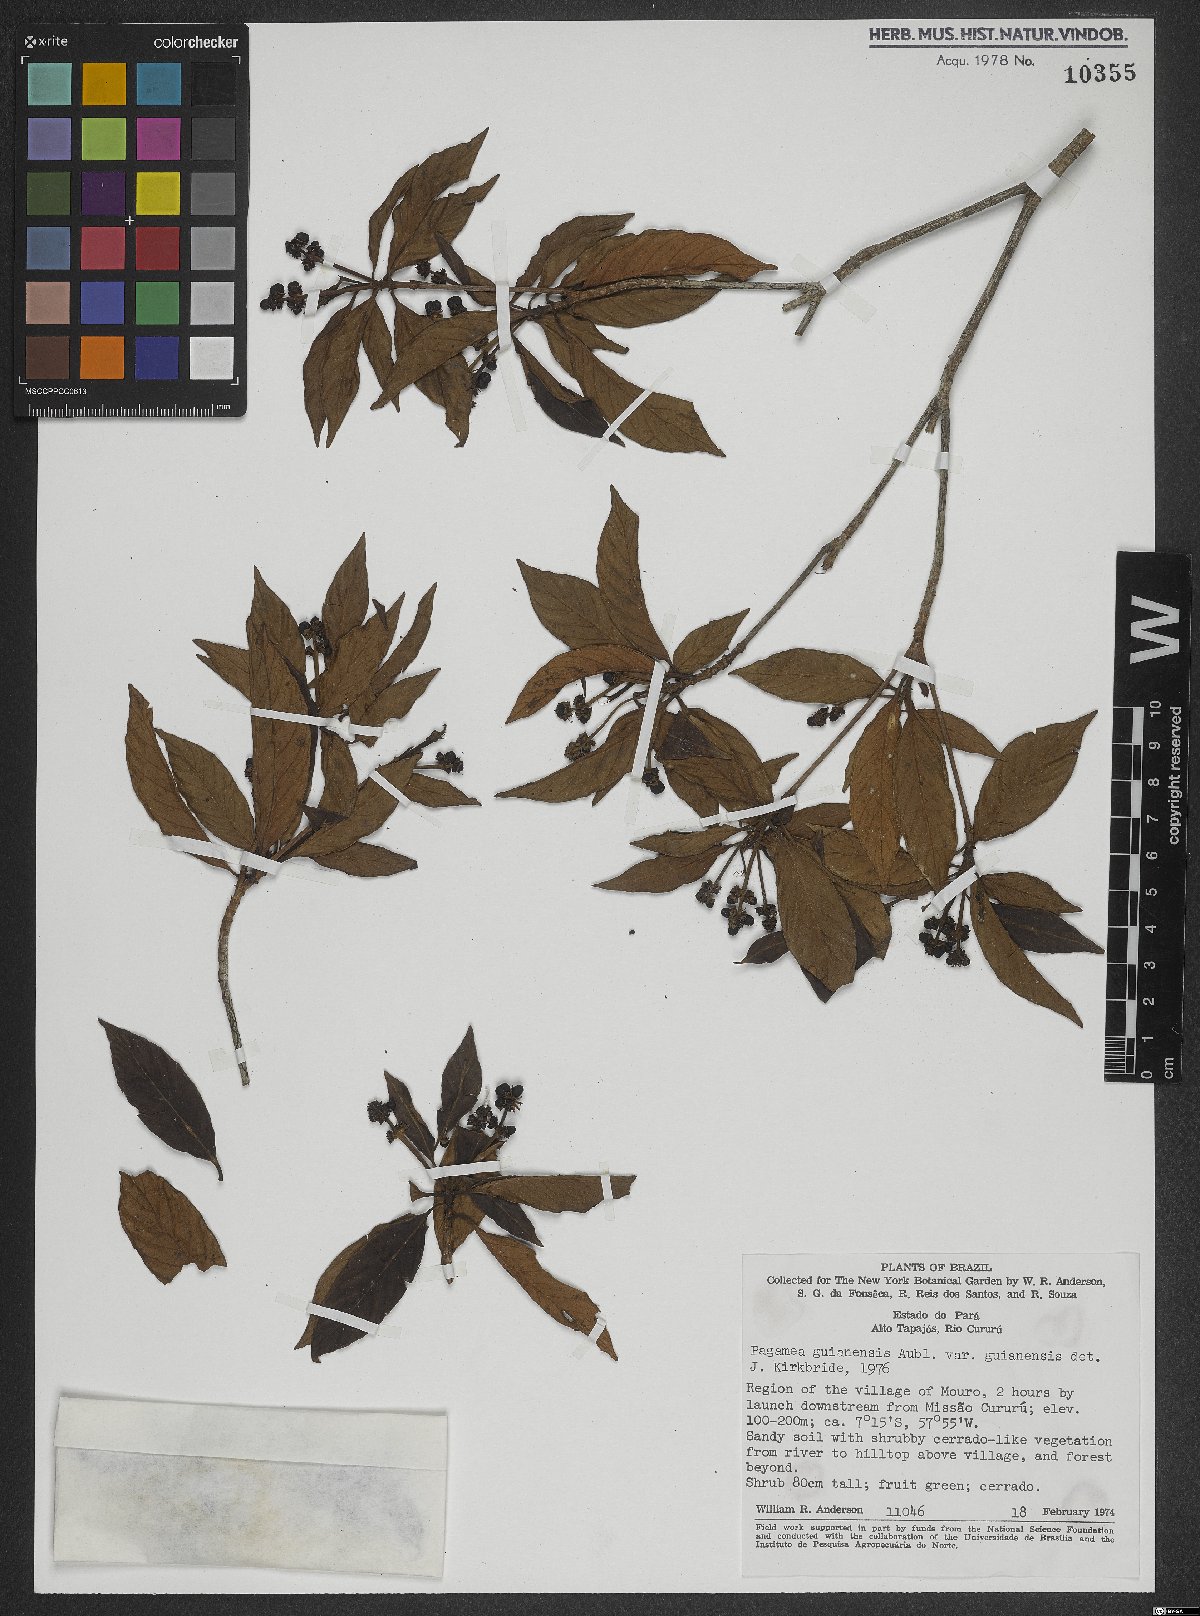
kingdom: Plantae
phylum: Tracheophyta
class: Magnoliopsida
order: Gentianales
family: Rubiaceae
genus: Pagamea
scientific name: Pagamea guianensis
